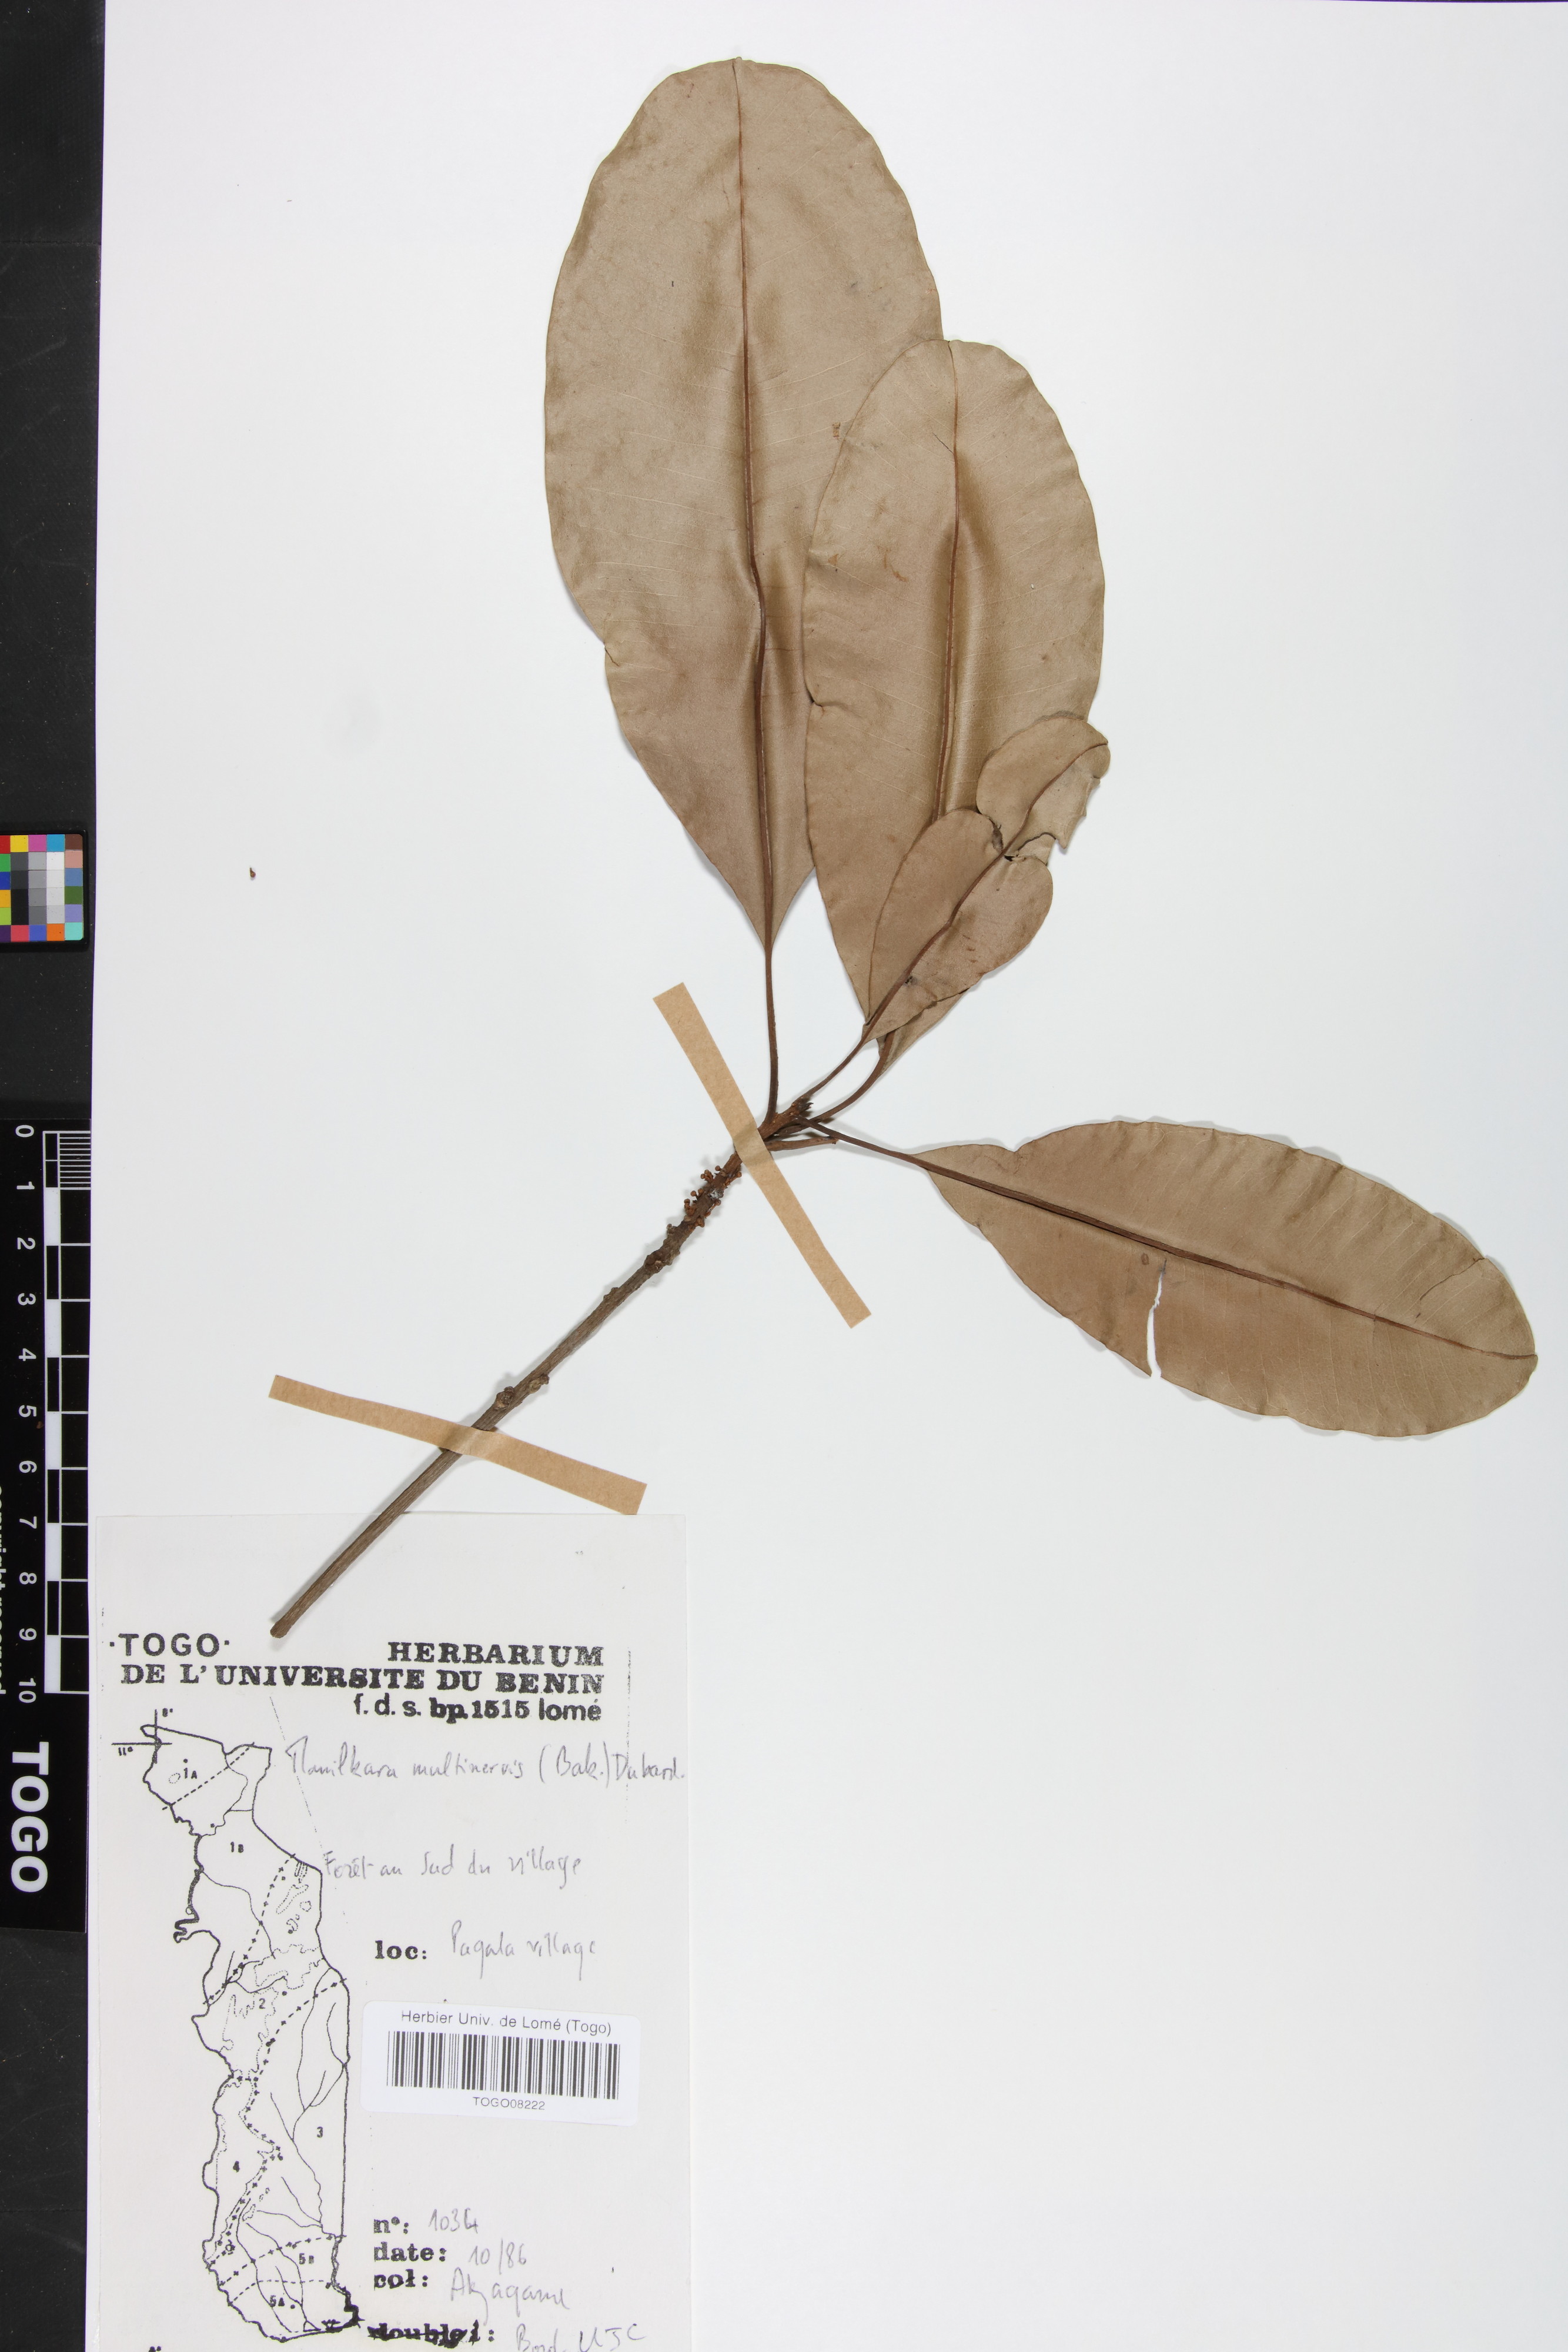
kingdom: Plantae
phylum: Tracheophyta
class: Magnoliopsida
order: Ericales
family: Sapotaceae
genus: Manilkara
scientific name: Manilkara obovata
